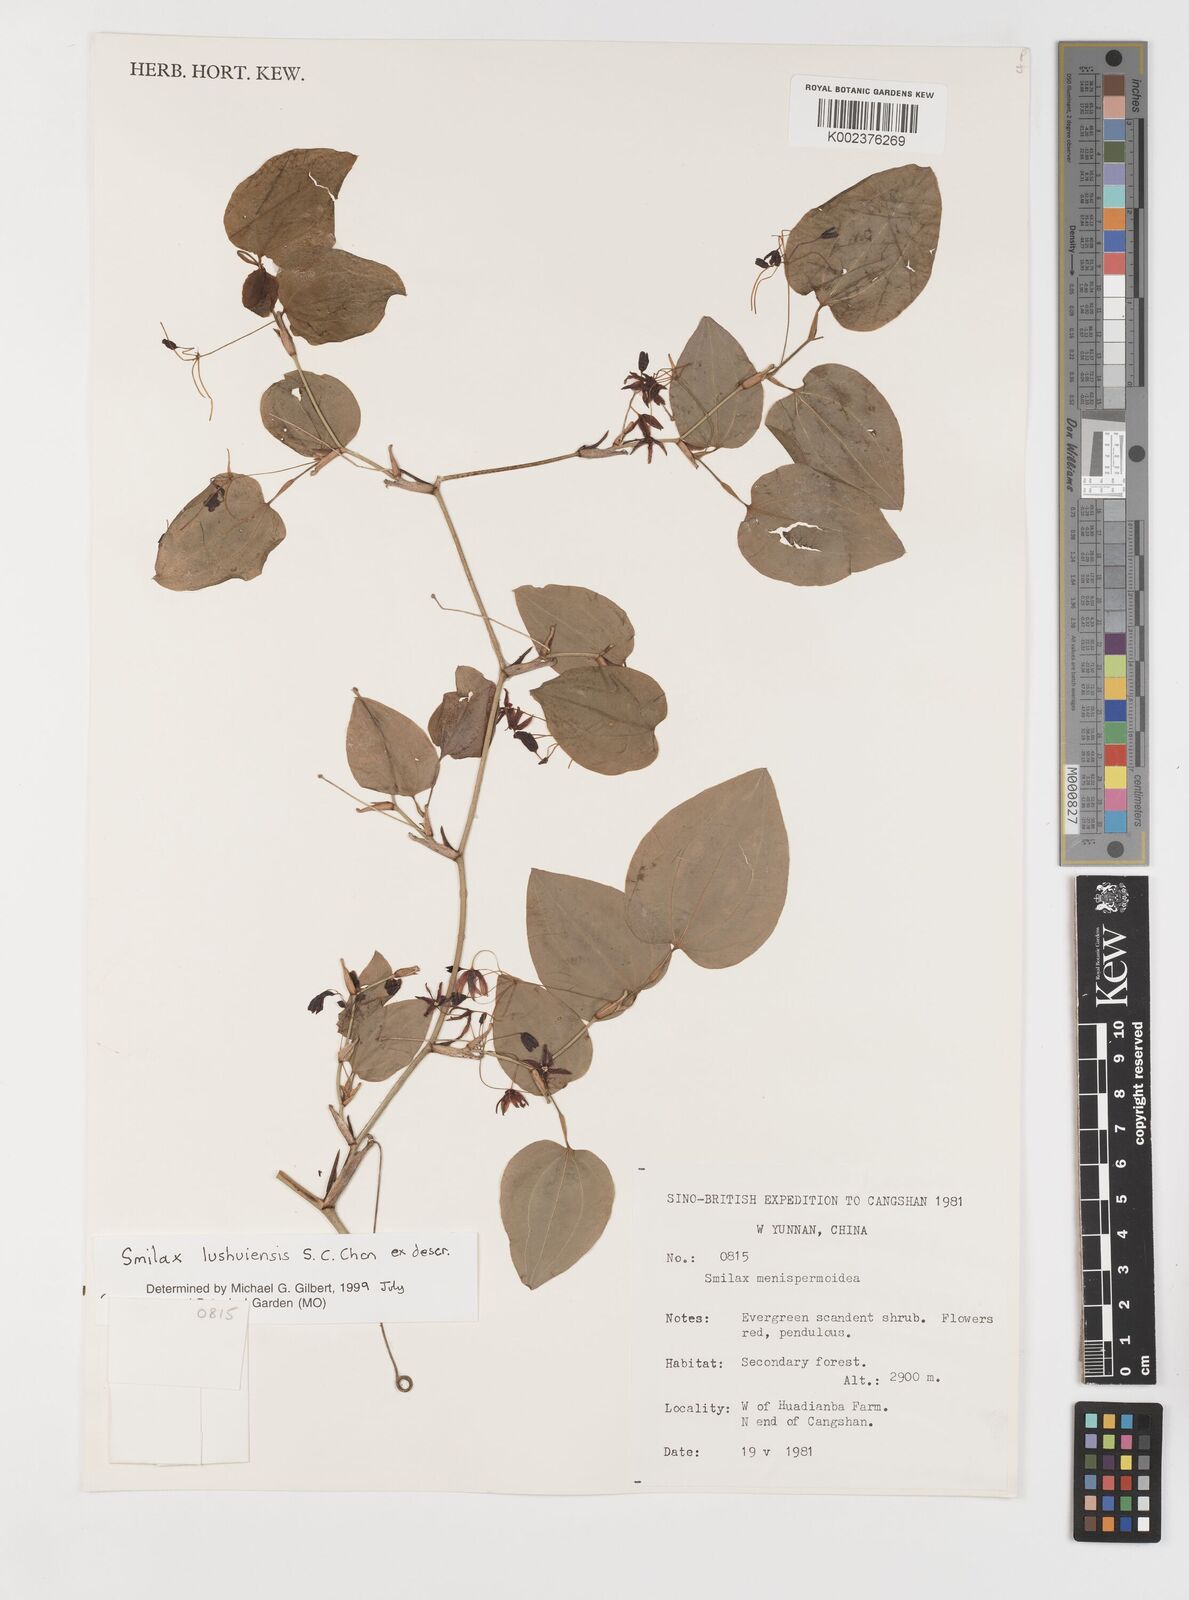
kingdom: Plantae
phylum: Tracheophyta
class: Liliopsida
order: Liliales
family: Smilacaceae
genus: Smilax
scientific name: Smilax lushuiensis
